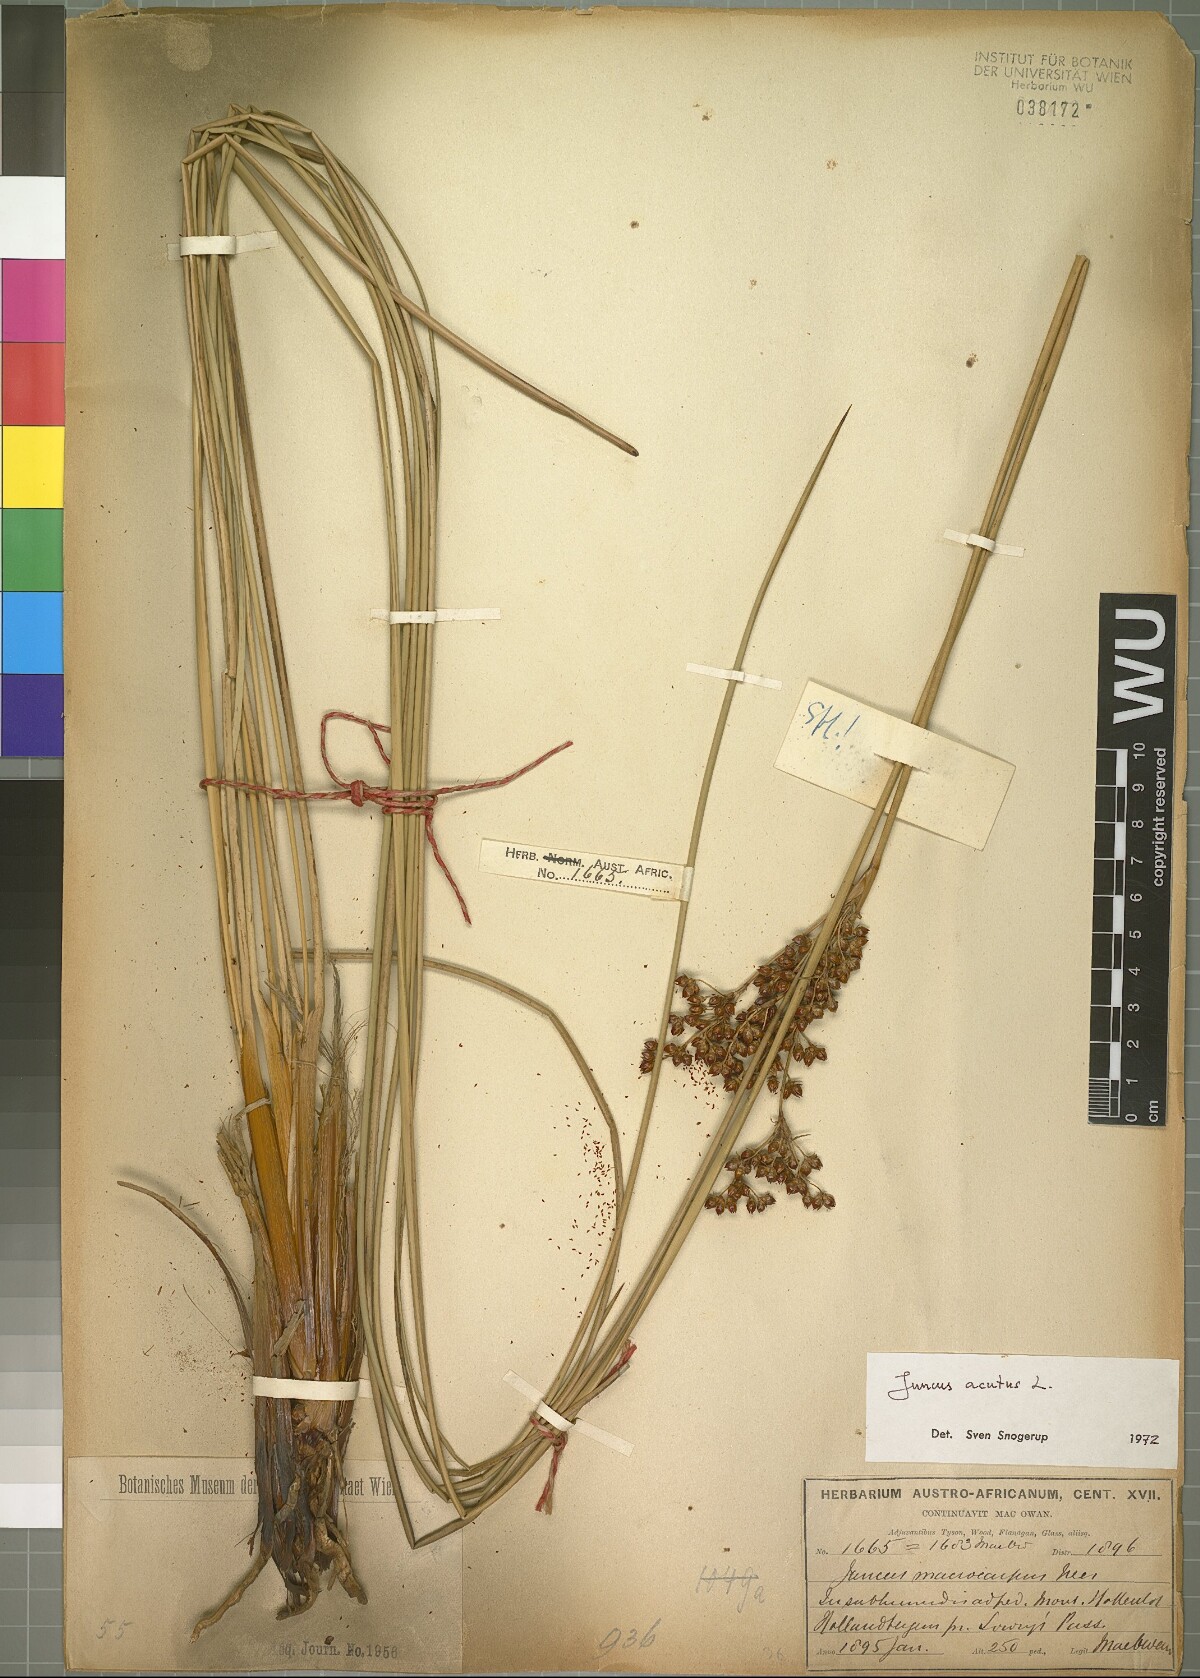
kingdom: Plantae
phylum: Tracheophyta
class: Liliopsida
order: Poales
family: Juncaceae
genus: Juncus
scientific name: Juncus acutus
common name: Sharp rush
